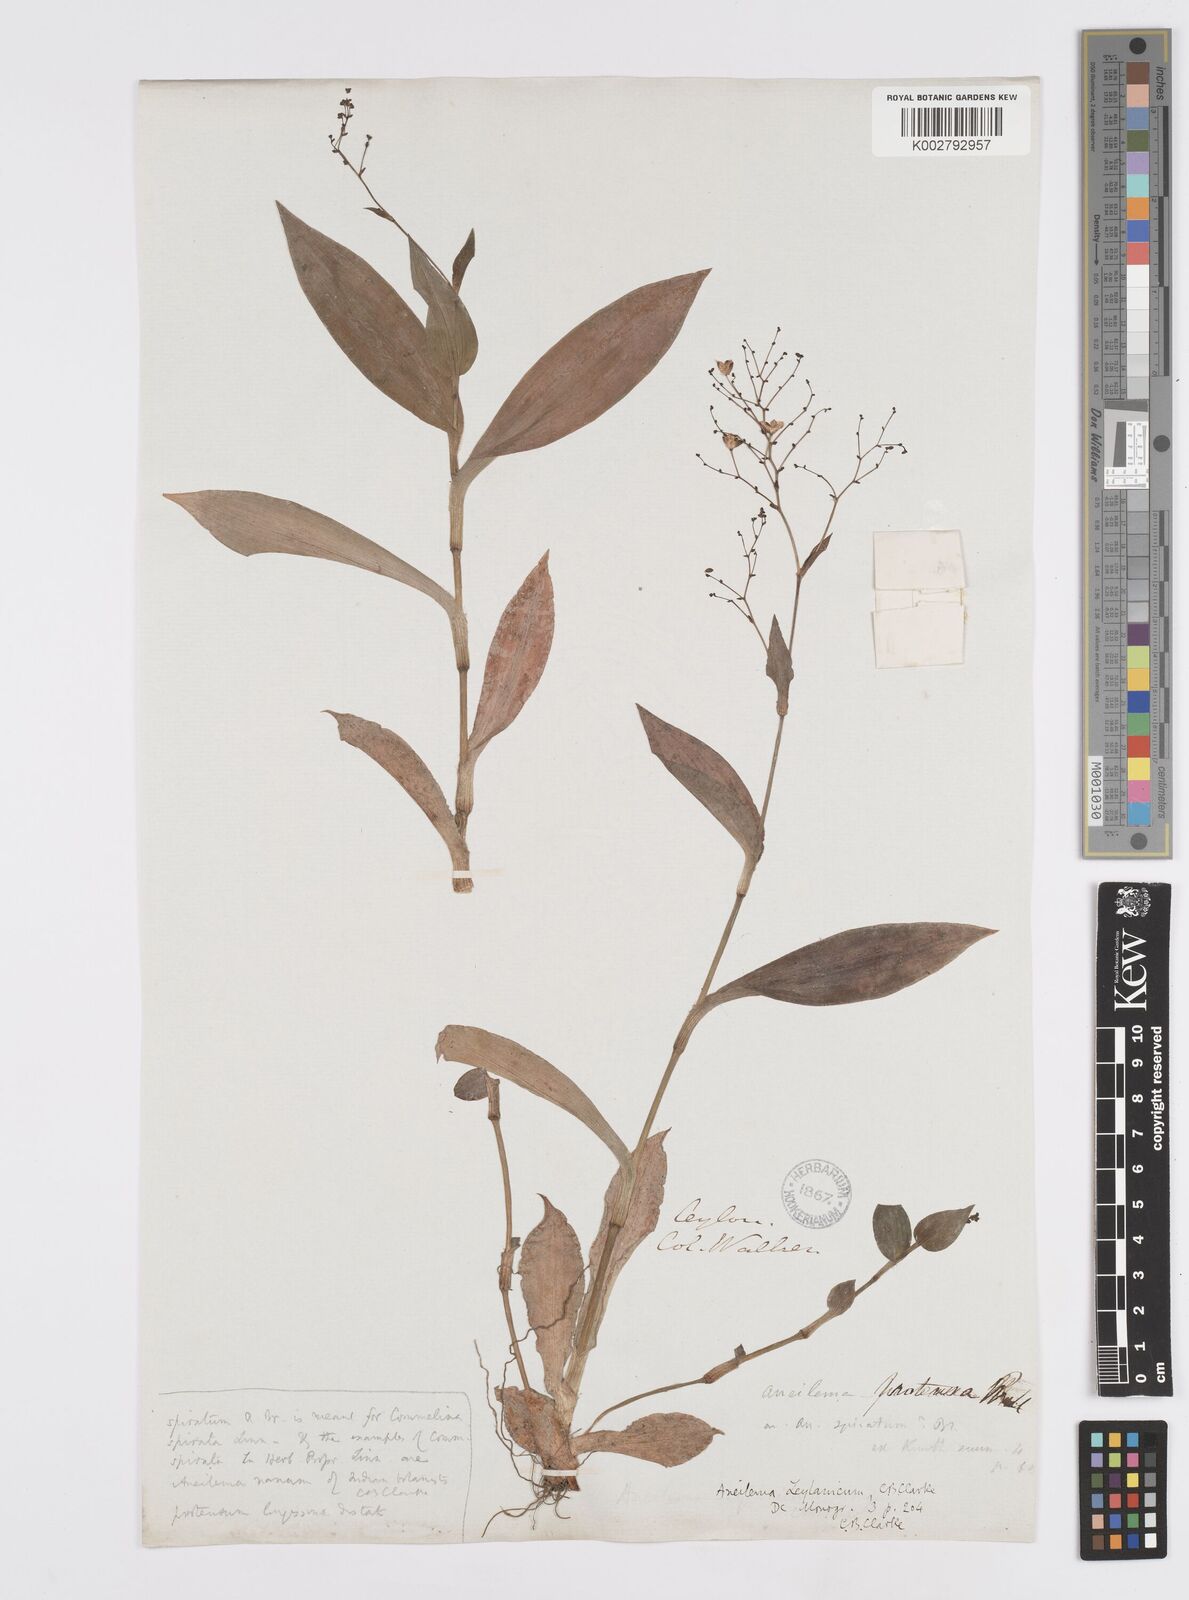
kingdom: Plantae
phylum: Tracheophyta
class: Liliopsida
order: Commelinales
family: Commelinaceae
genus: Murdannia
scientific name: Murdannia zeylanica
